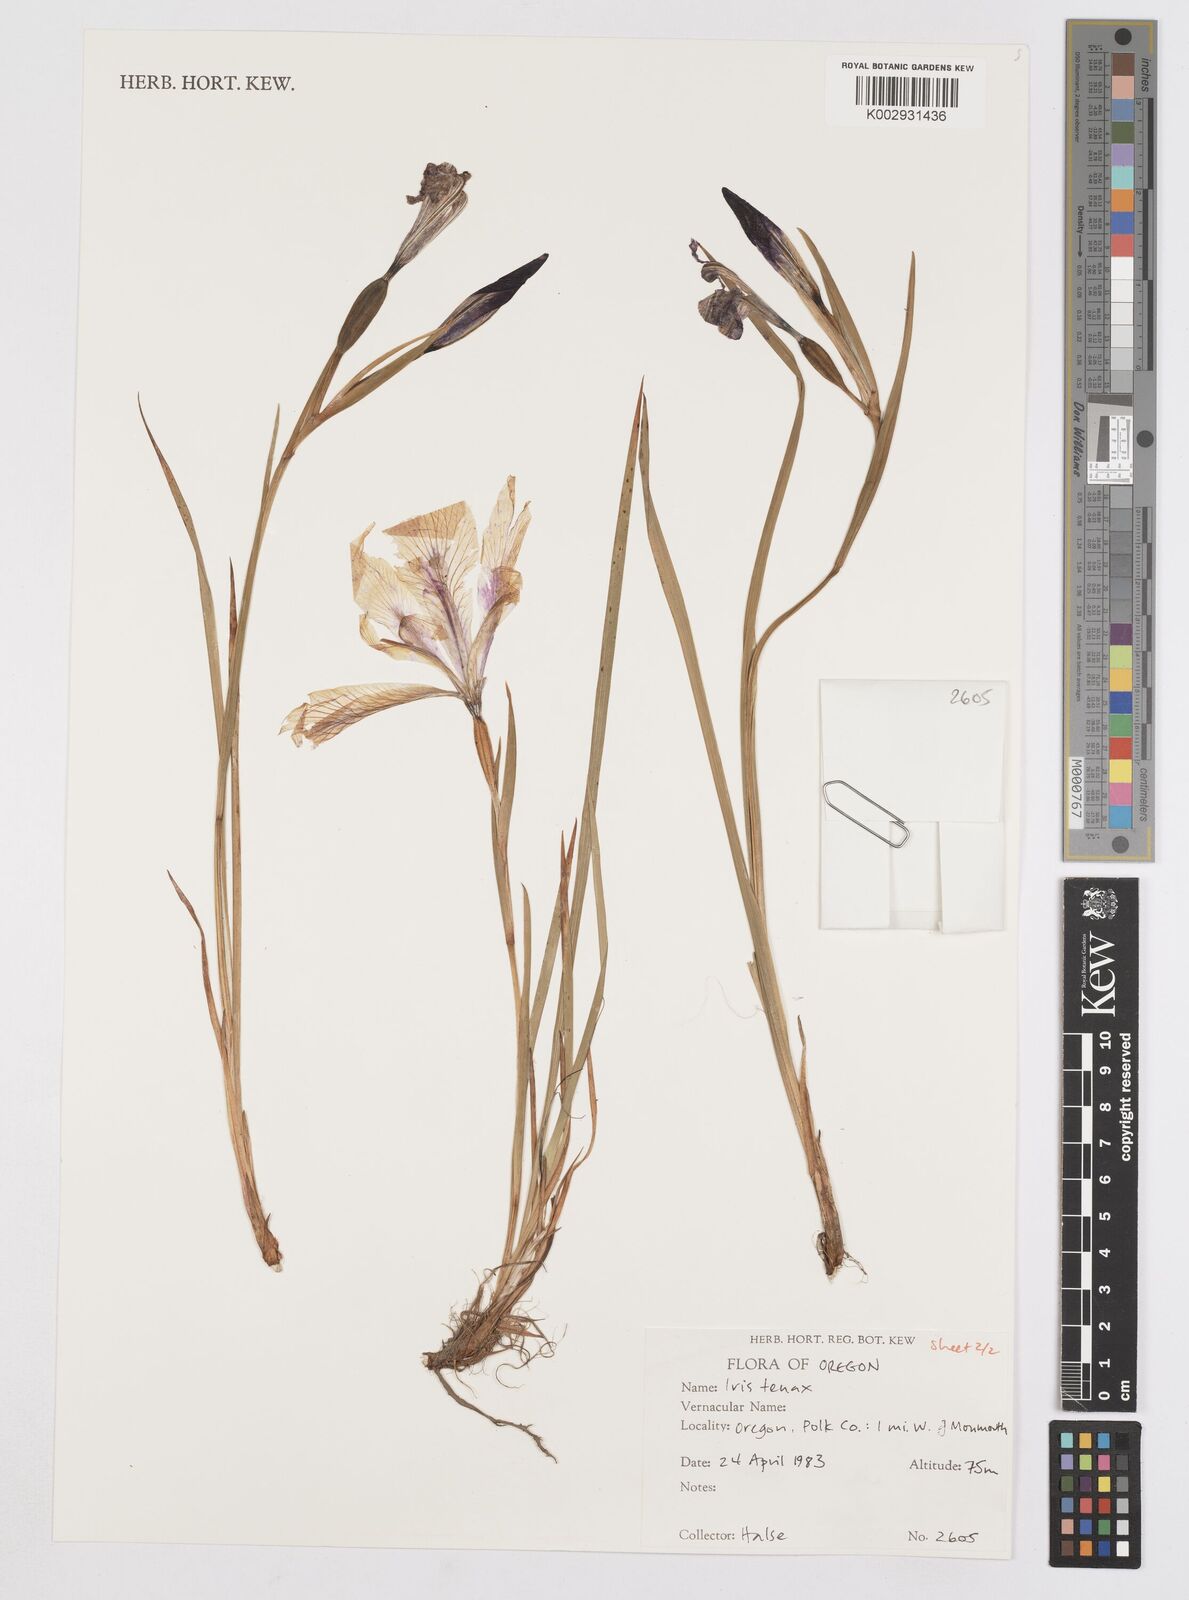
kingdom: Plantae
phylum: Tracheophyta
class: Liliopsida
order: Asparagales
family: Iridaceae
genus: Iris
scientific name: Iris tenax
